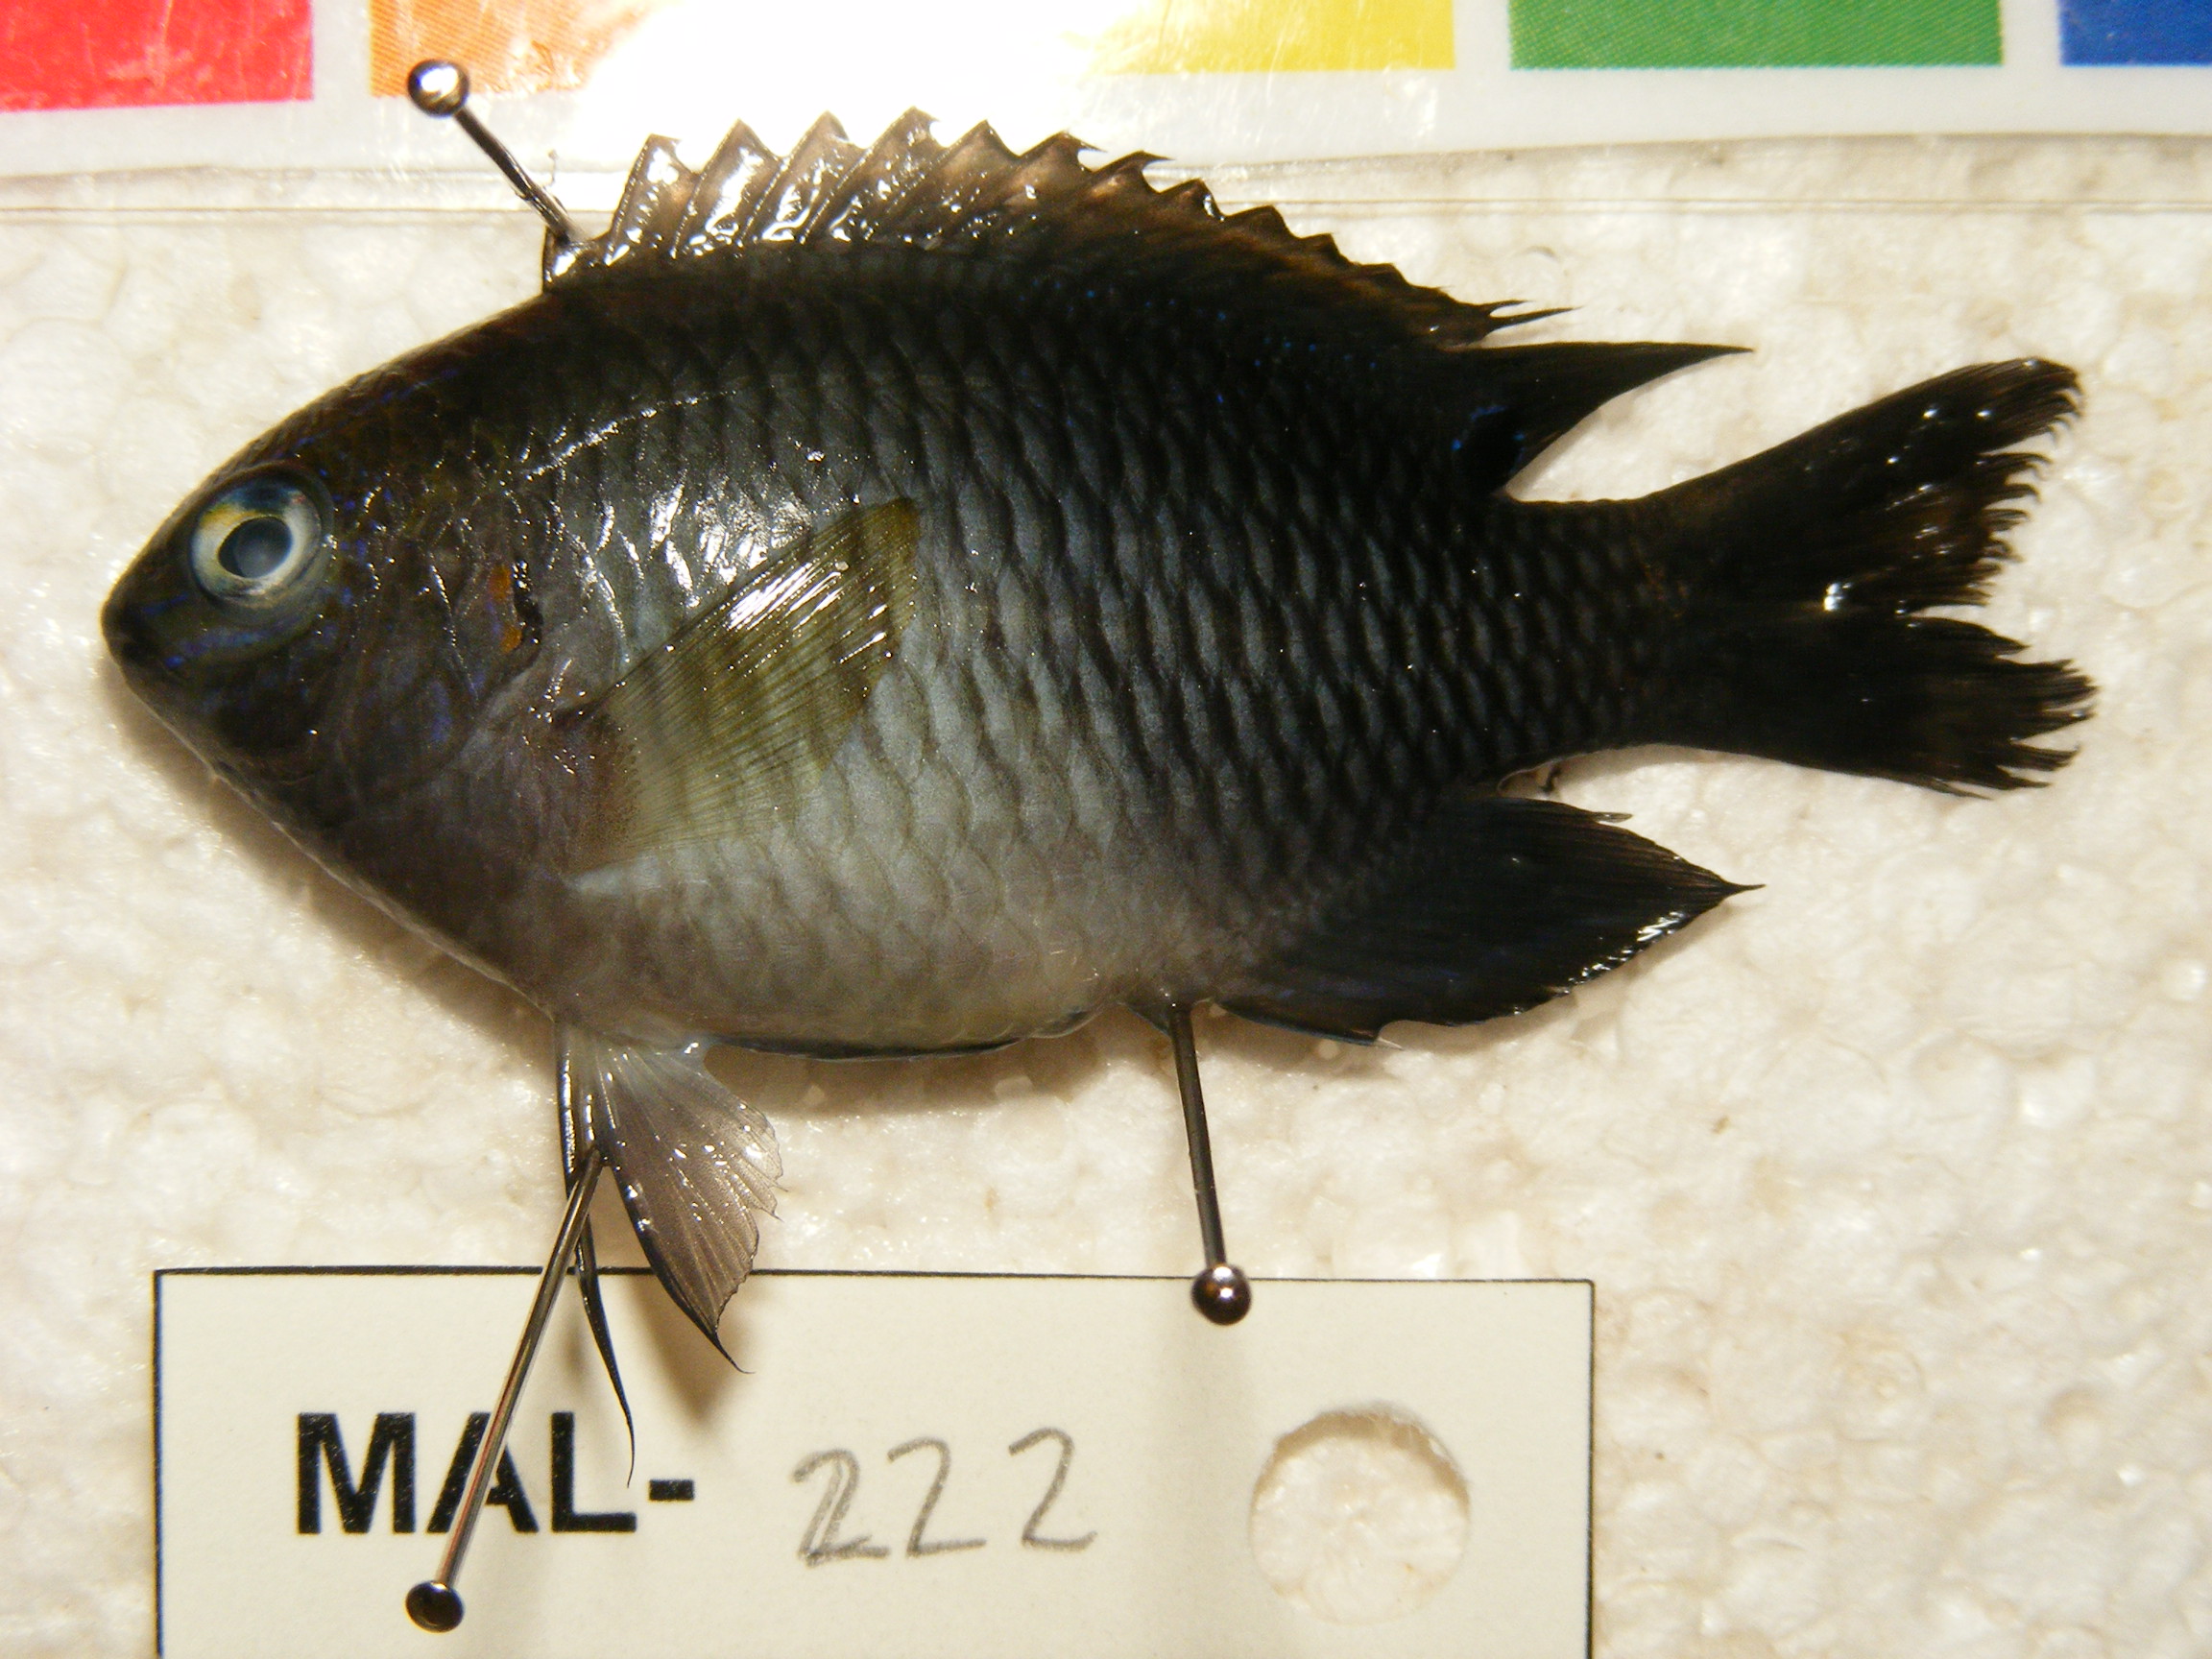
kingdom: Animalia
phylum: Chordata
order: Perciformes
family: Pomacentridae
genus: Chrysiptera
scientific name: Chrysiptera
